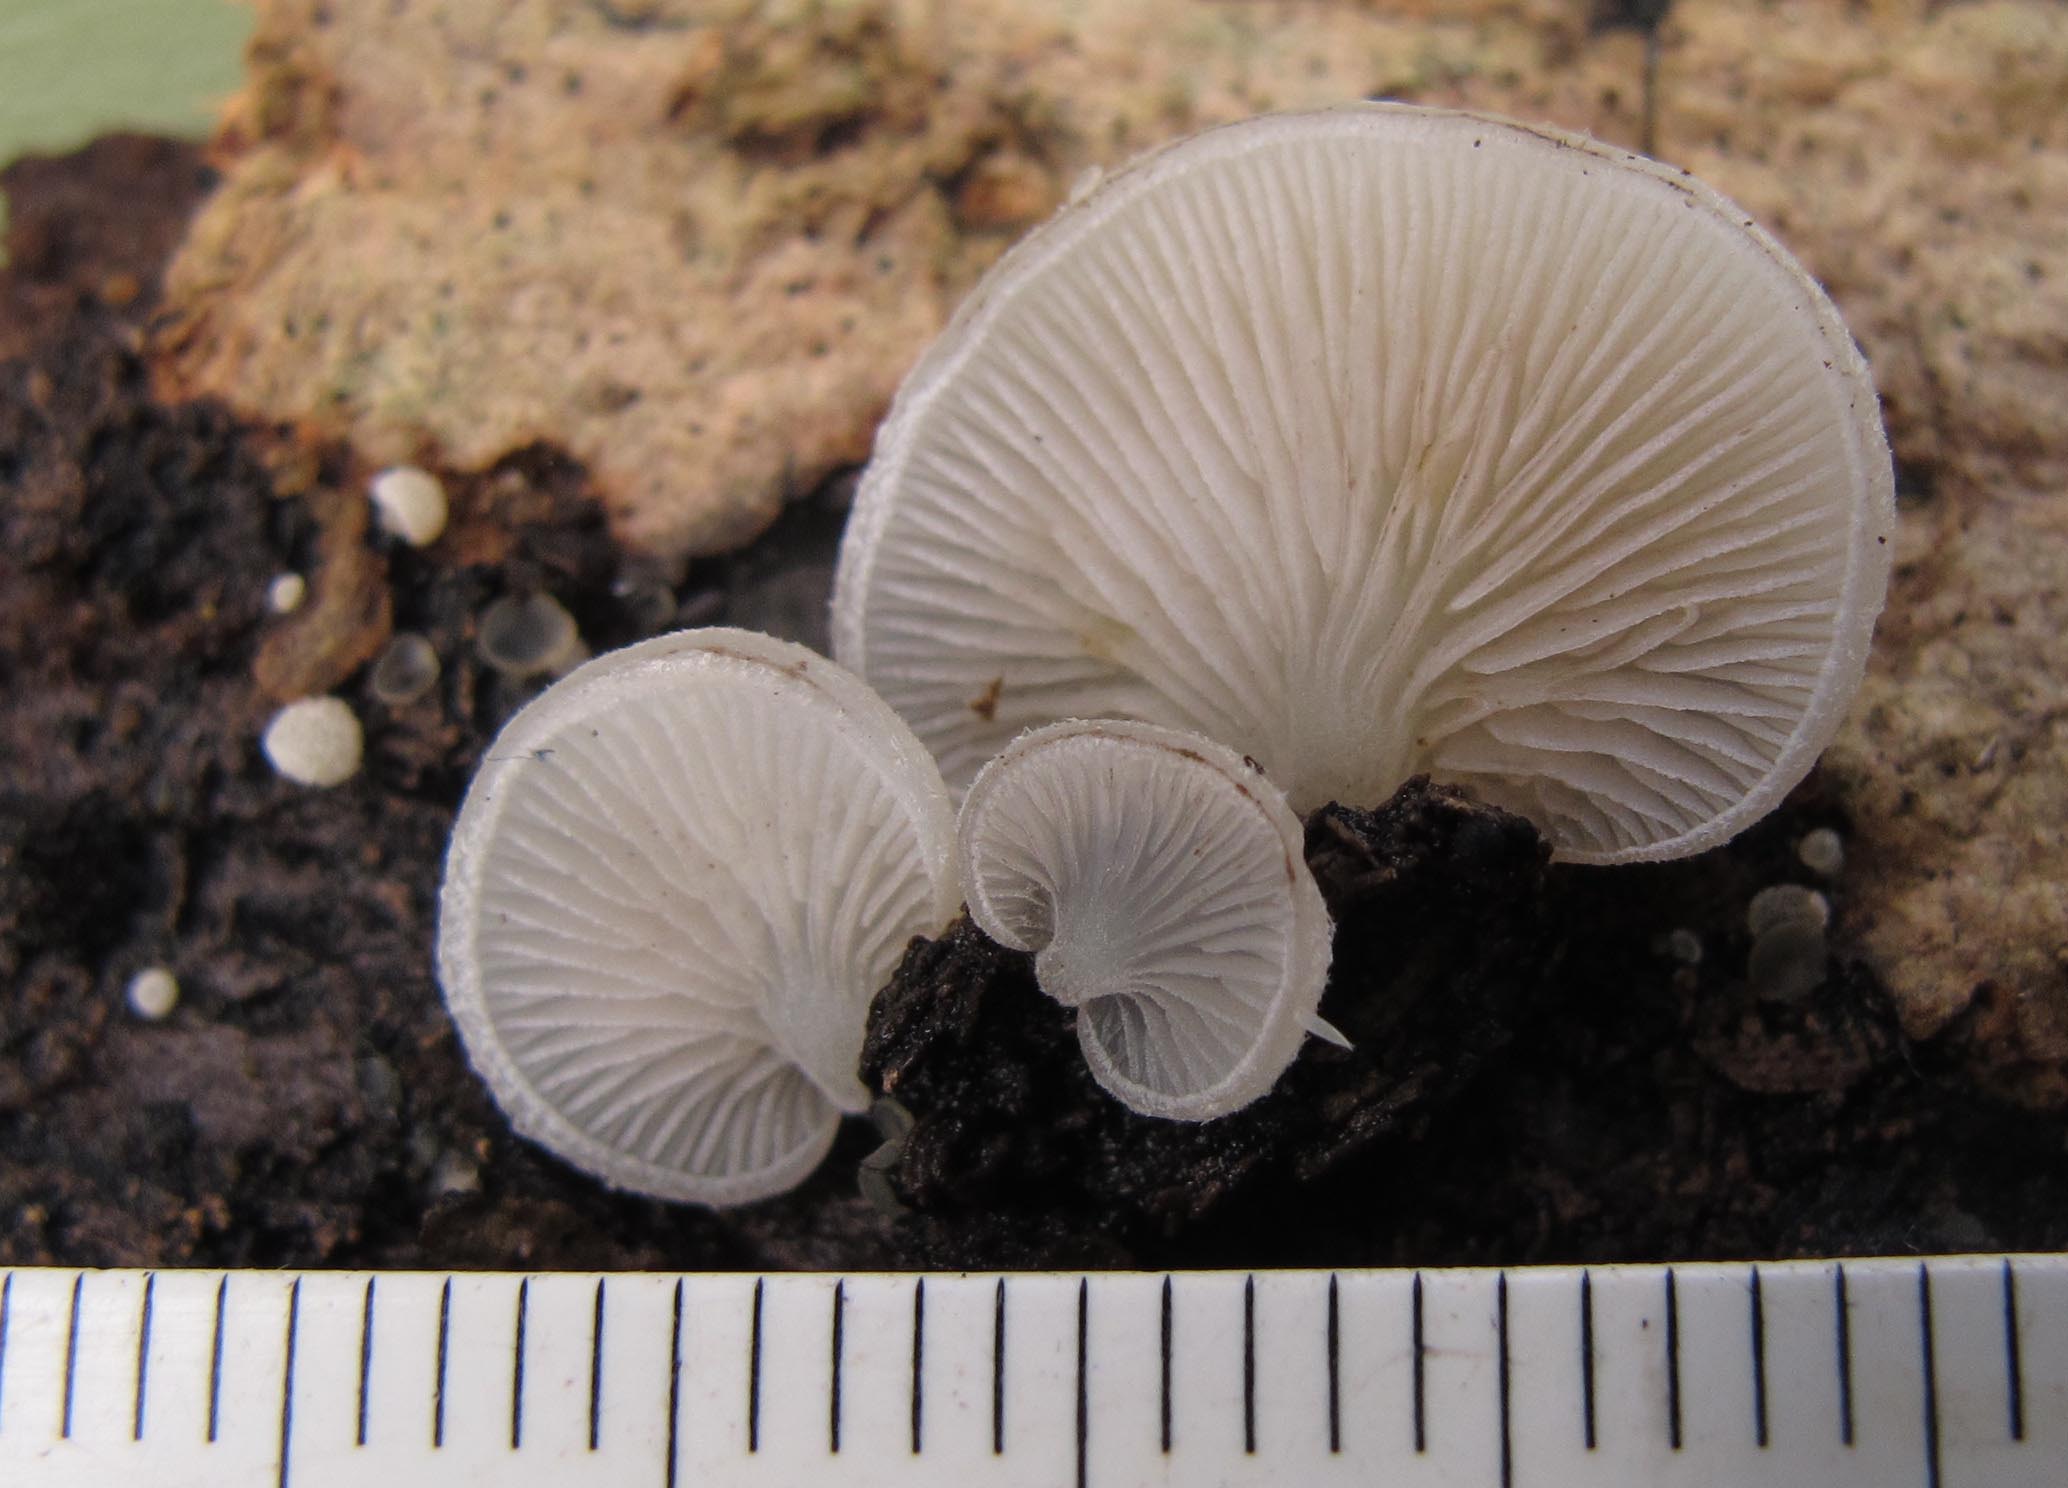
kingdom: Fungi
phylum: Basidiomycota
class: Agaricomycetes
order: Agaricales
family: Crepidotaceae
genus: Crepidotus
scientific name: Crepidotus mollis
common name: blød muslingesvamp
